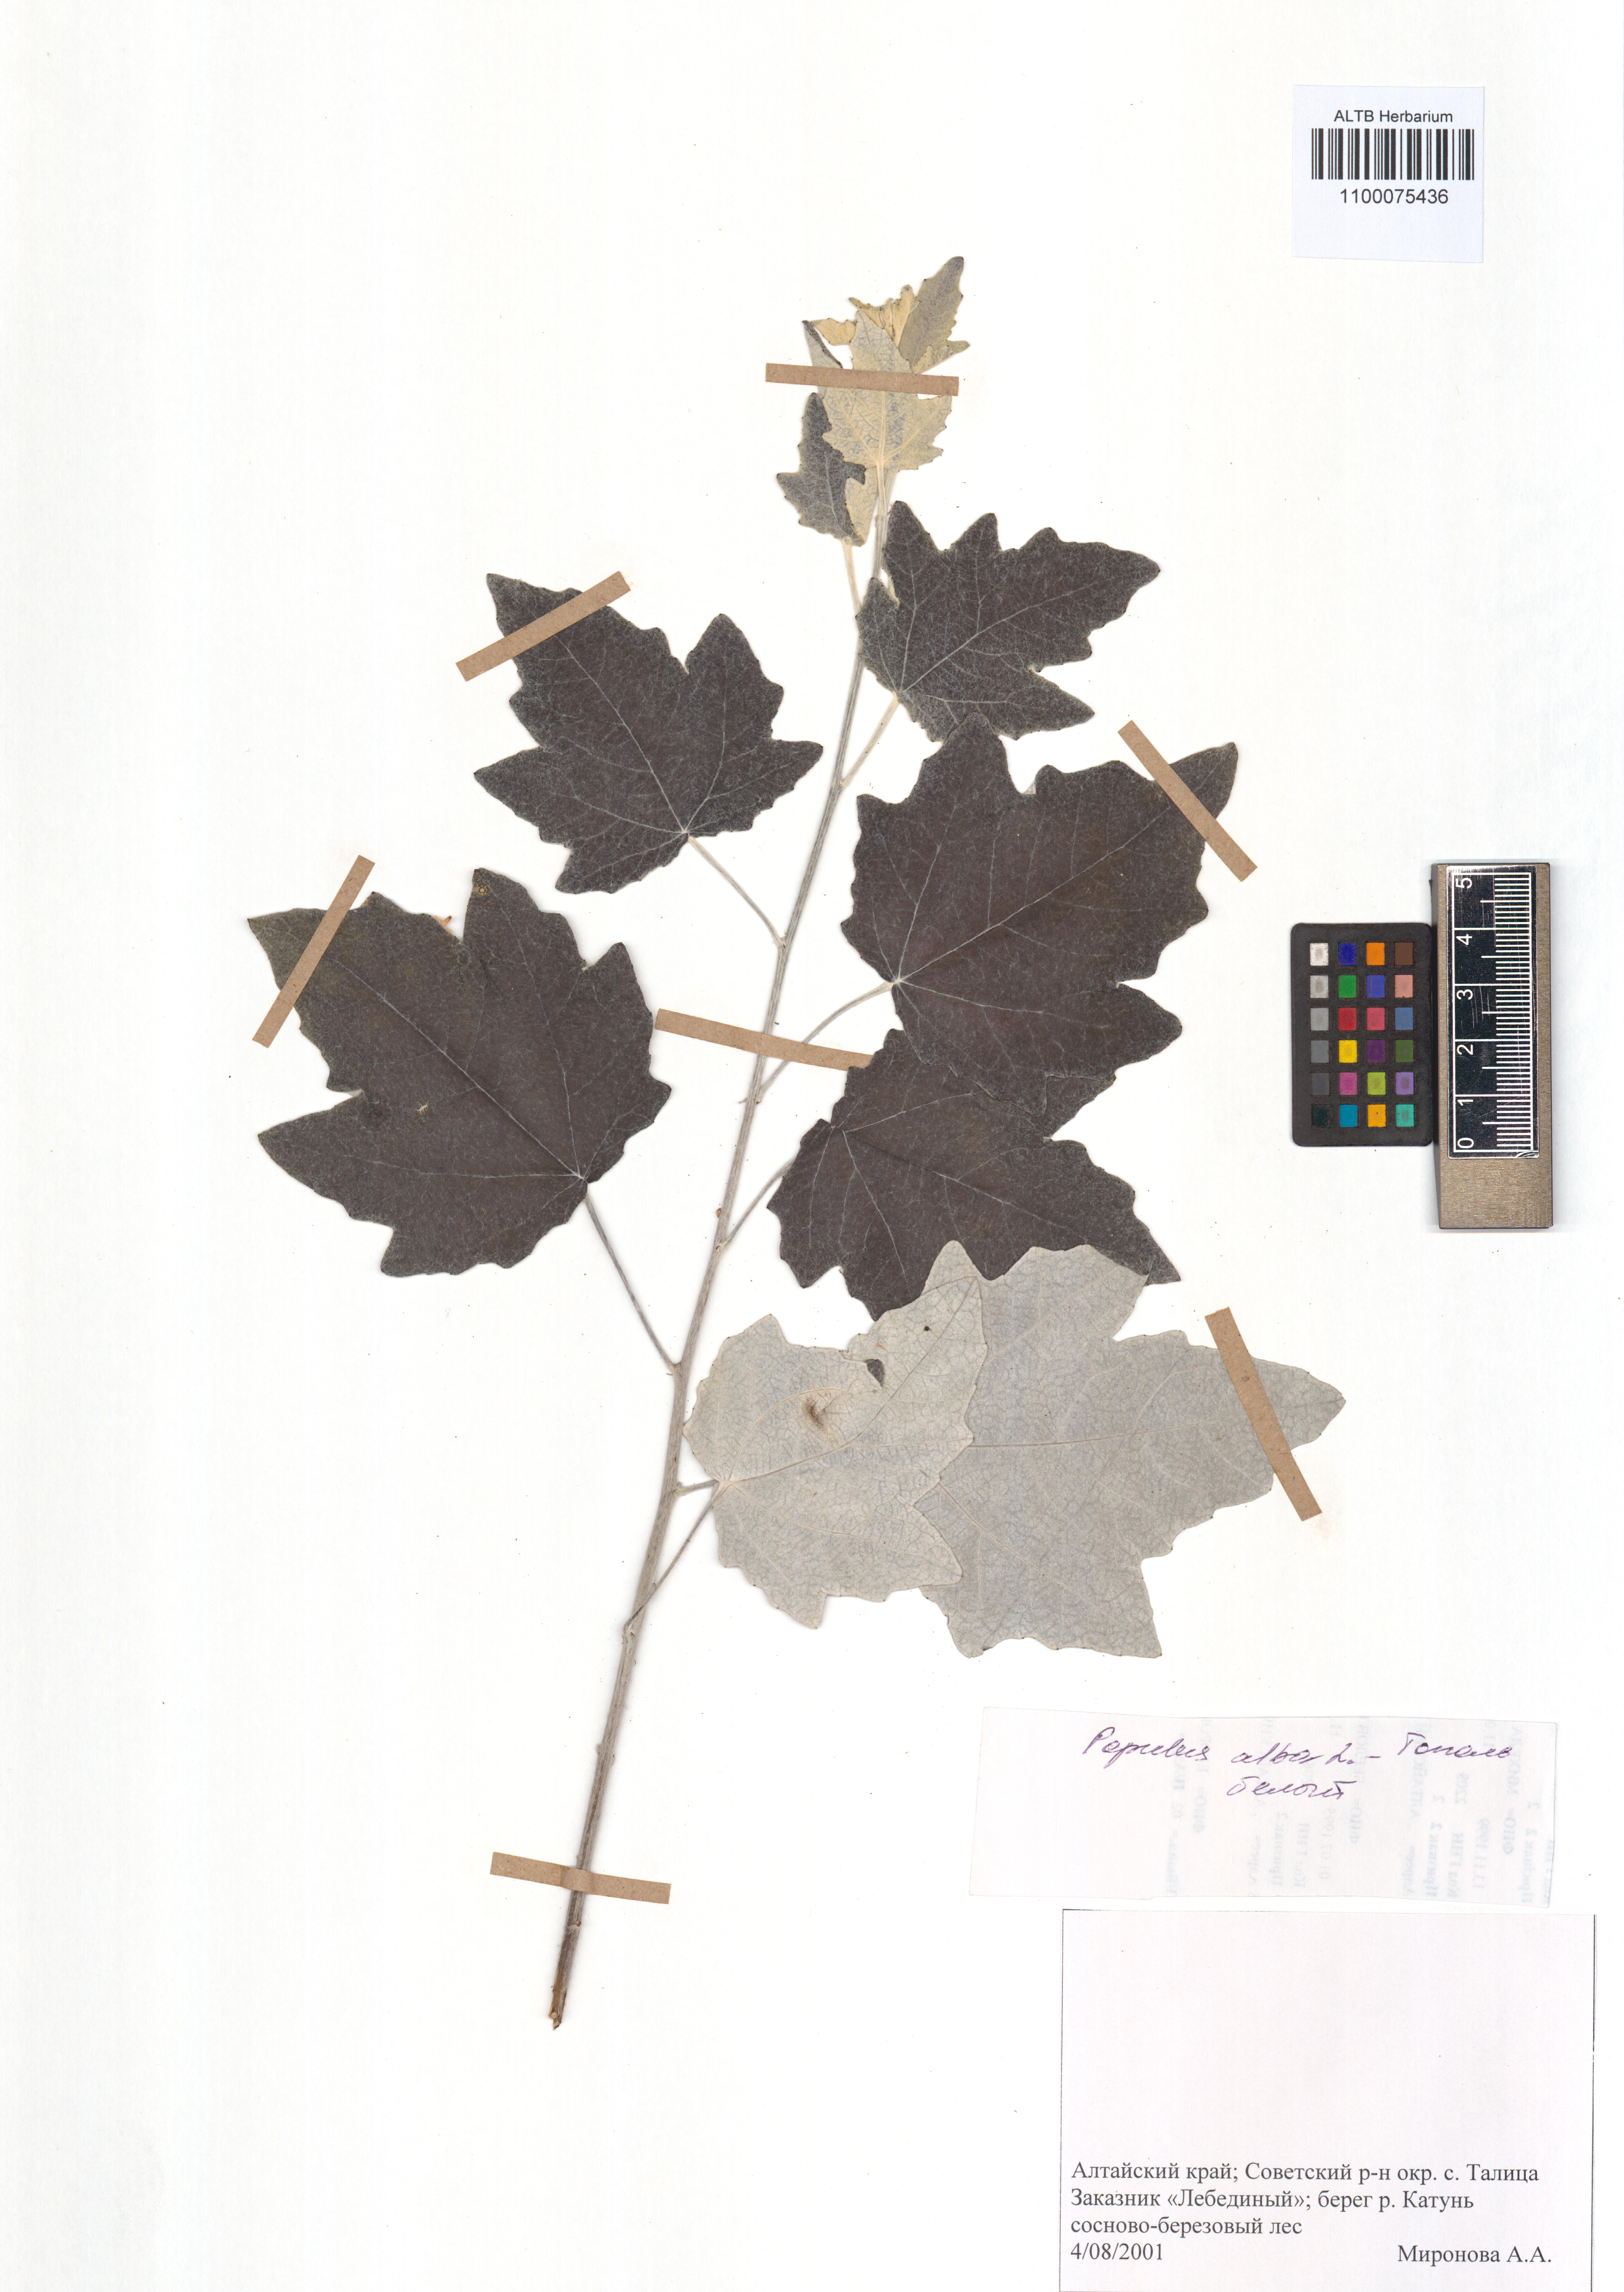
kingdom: Plantae
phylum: Tracheophyta
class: Magnoliopsida
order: Malpighiales
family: Salicaceae
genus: Populus
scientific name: Populus alba
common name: White poplar
